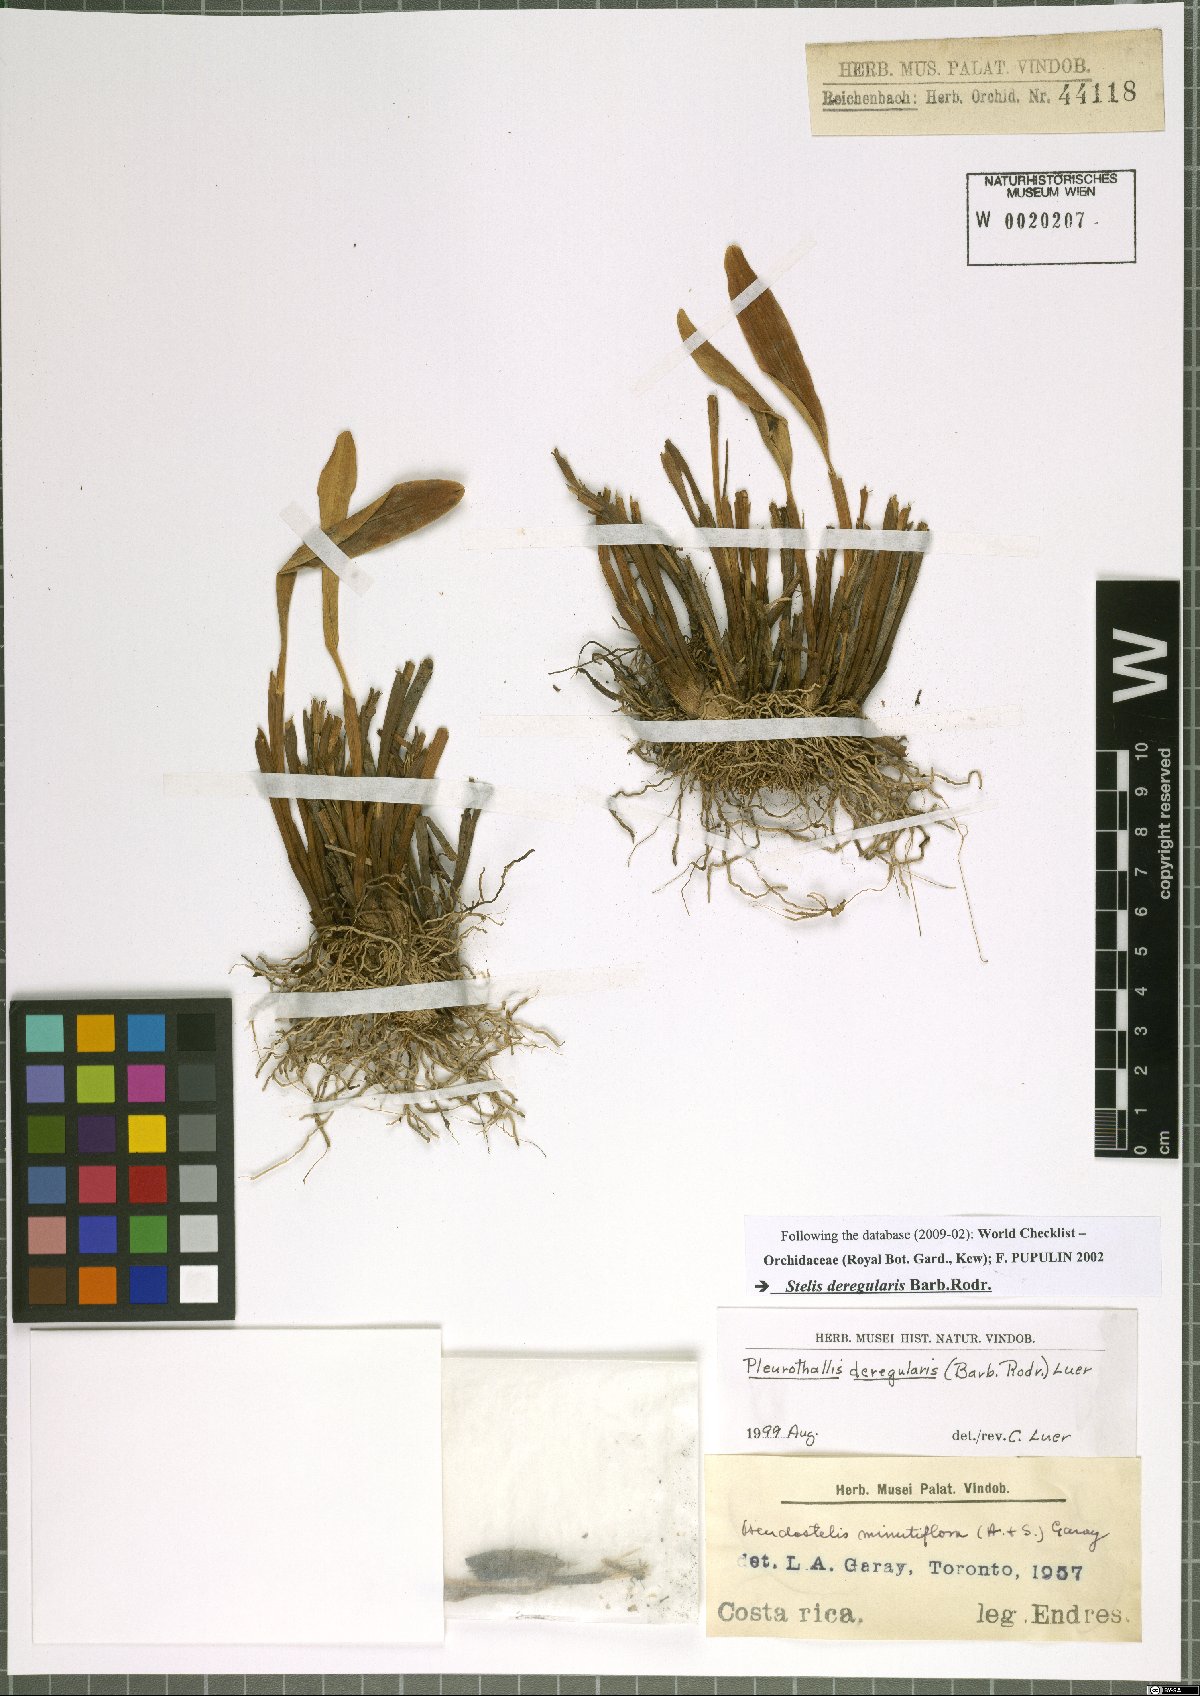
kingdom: Plantae
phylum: Tracheophyta
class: Liliopsida
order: Asparagales
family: Orchidaceae
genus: Stelis
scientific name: Stelis deregularis
